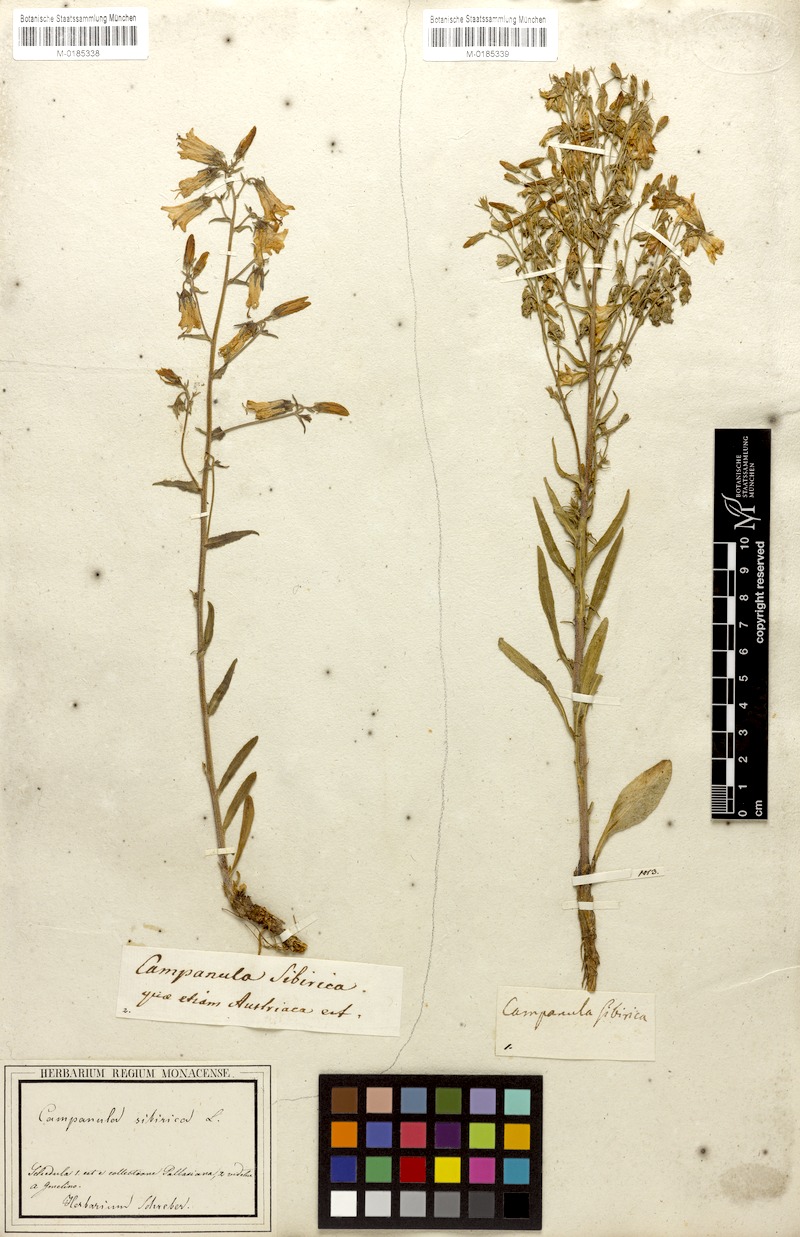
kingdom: Plantae
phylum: Tracheophyta
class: Magnoliopsida
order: Asterales
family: Campanulaceae
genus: Campanula
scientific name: Campanula sibirica
